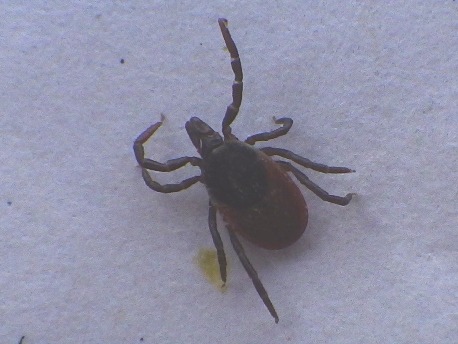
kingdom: Animalia
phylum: Arthropoda
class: Arachnida
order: Ixodida
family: Ixodidae
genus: Ixodes
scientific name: Ixodes ricinus
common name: Skovflåt
